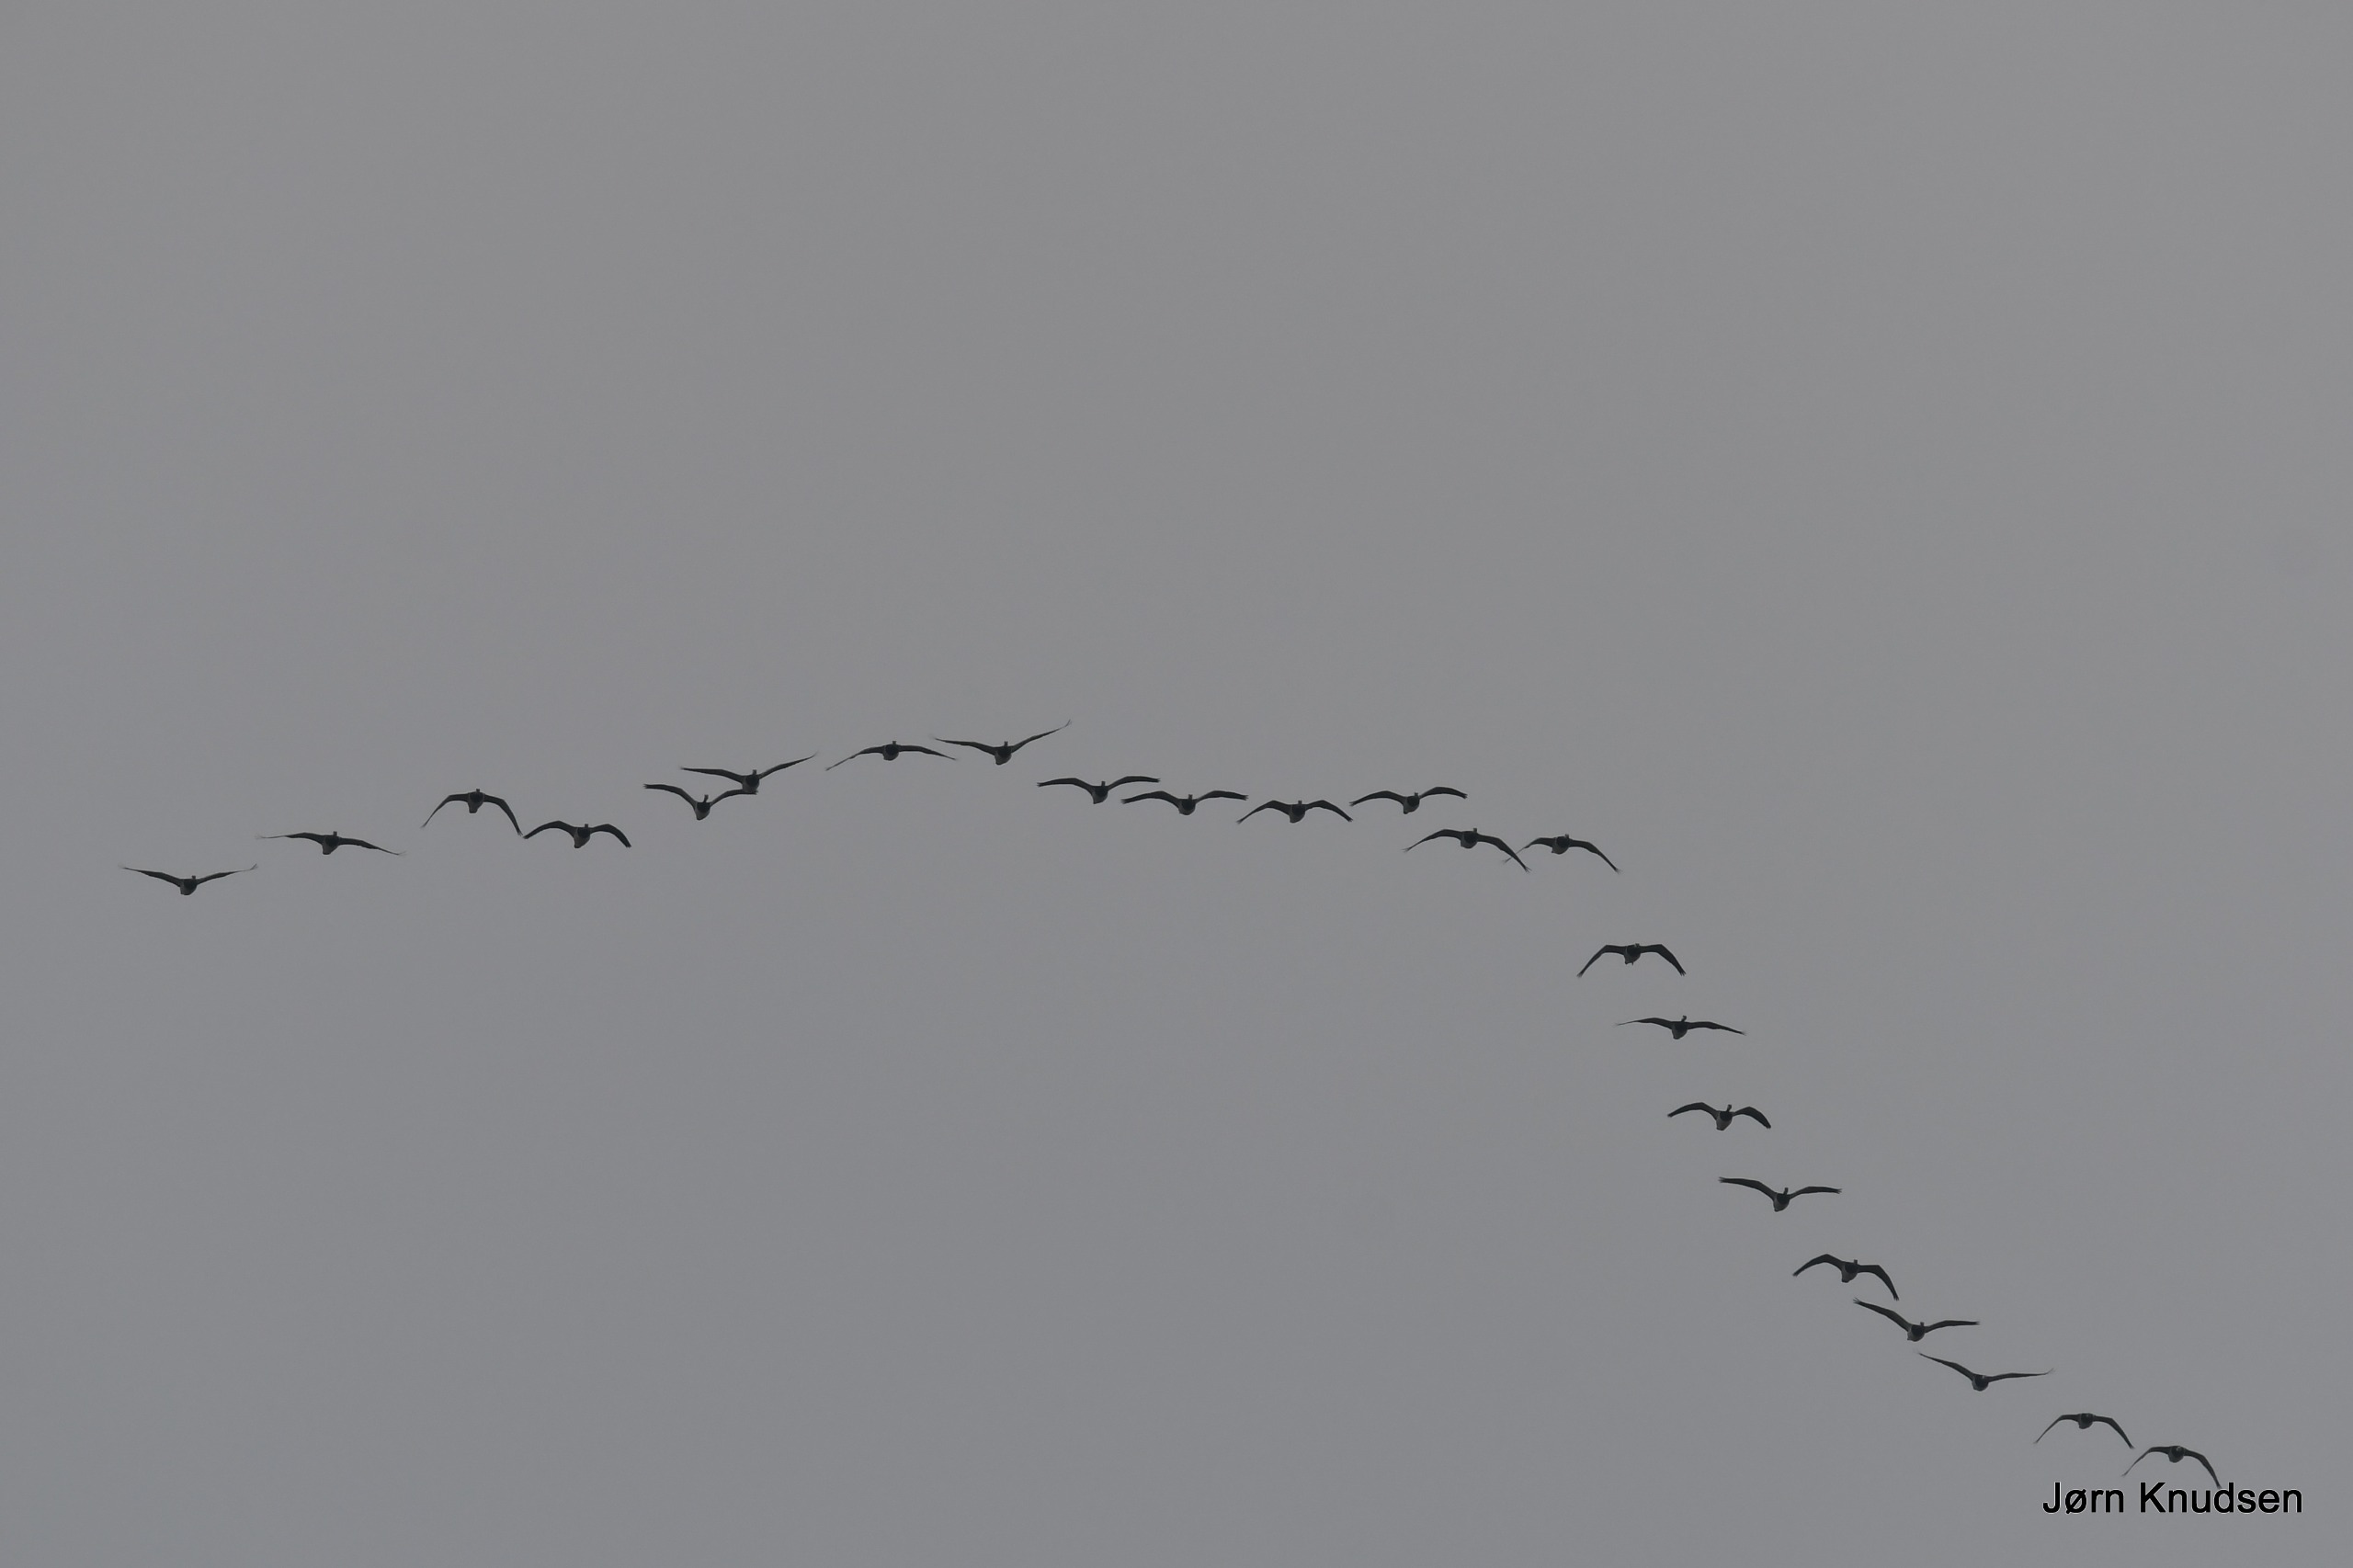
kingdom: Animalia
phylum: Chordata
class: Aves
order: Anseriformes
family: Anatidae
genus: Branta
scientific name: Branta leucopsis
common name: Bramgås
